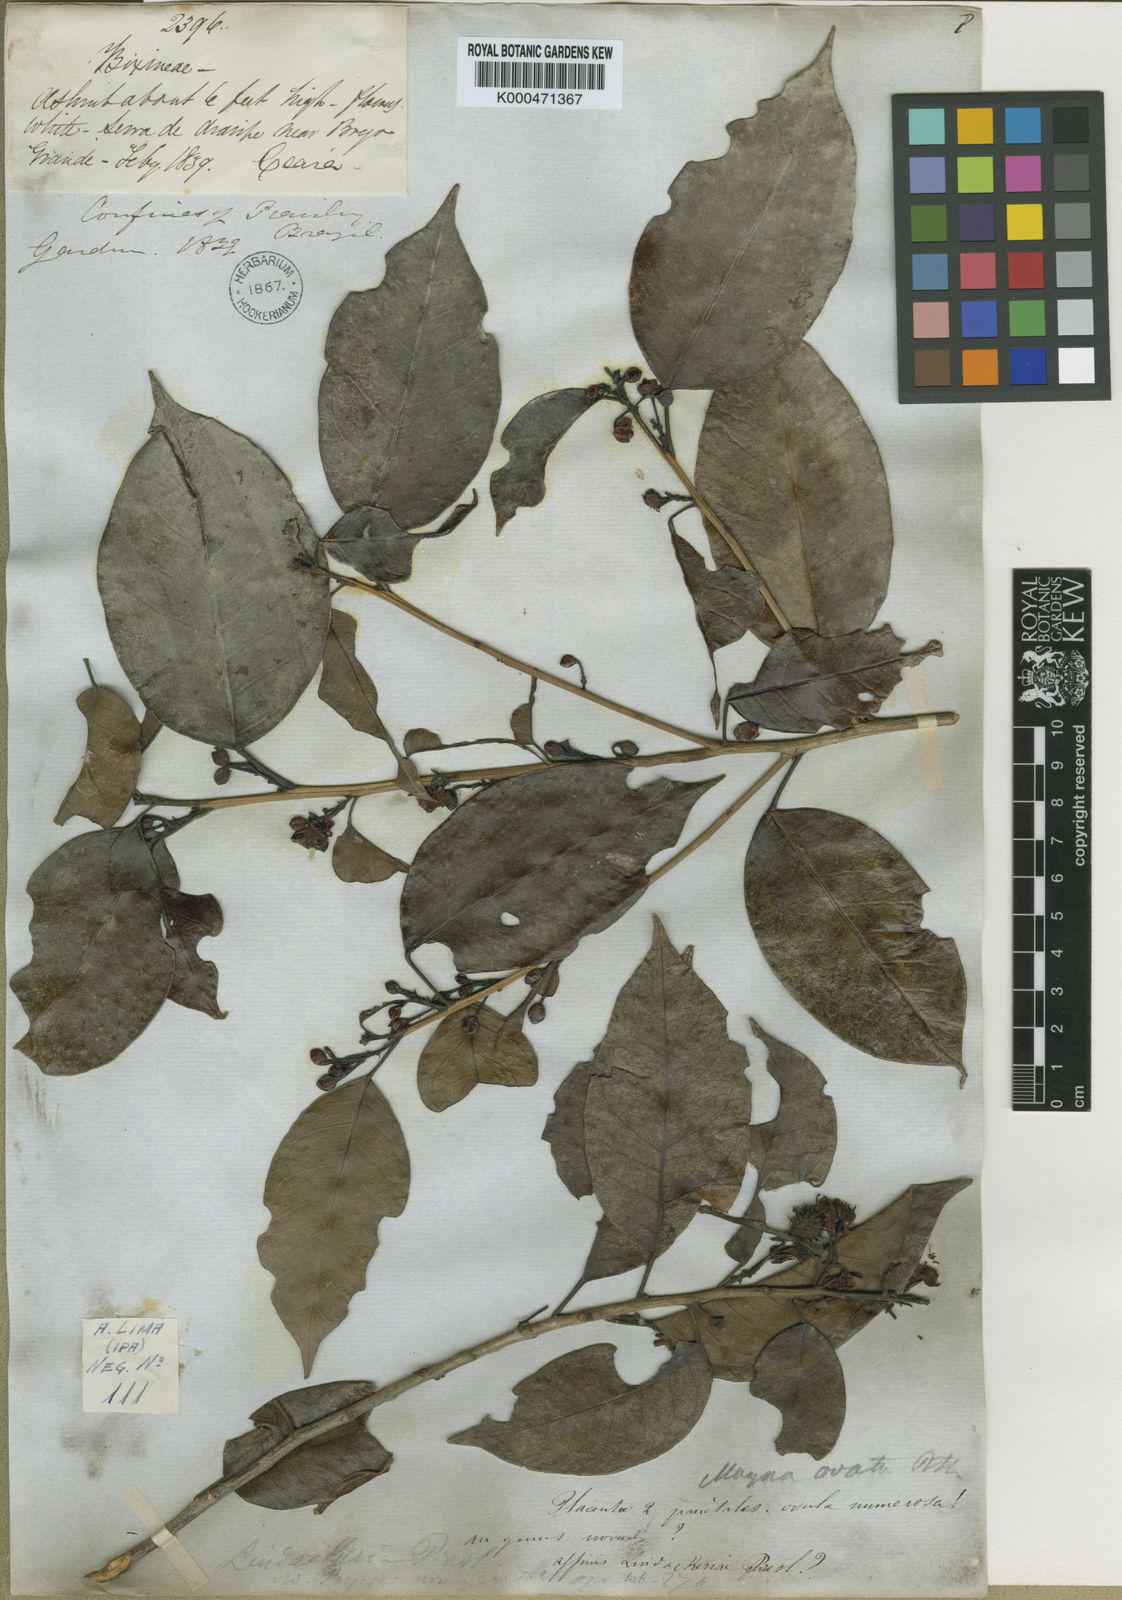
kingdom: Plantae
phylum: Tracheophyta
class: Magnoliopsida
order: Malpighiales
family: Achariaceae
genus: Lindackeria
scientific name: Lindackeria ovata
